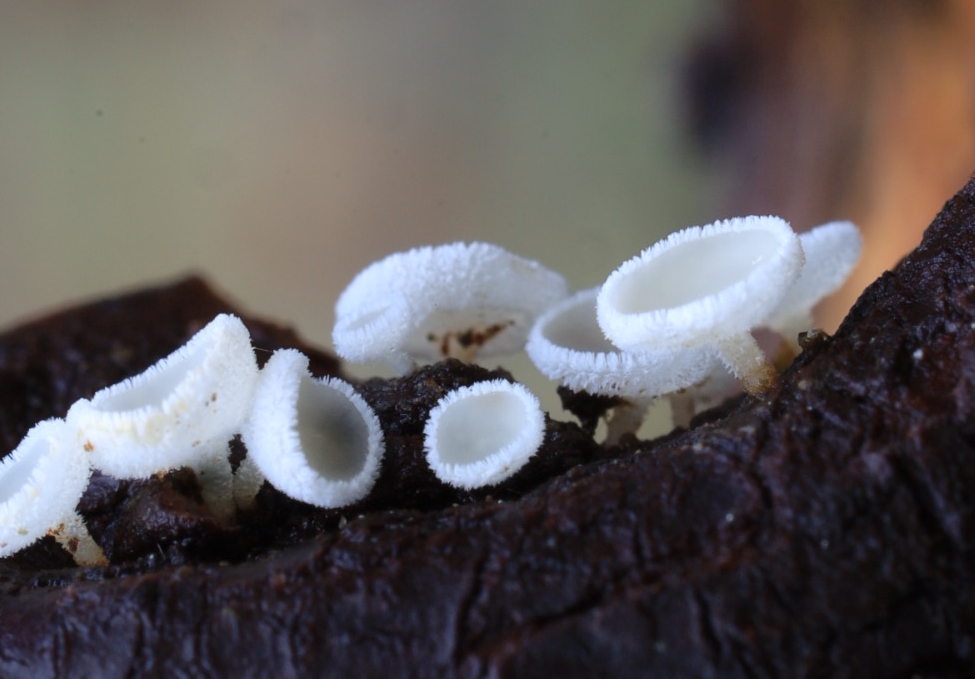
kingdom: Fungi
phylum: Ascomycota
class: Leotiomycetes
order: Helotiales
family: Lachnaceae
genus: Lachnum
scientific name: Lachnum
